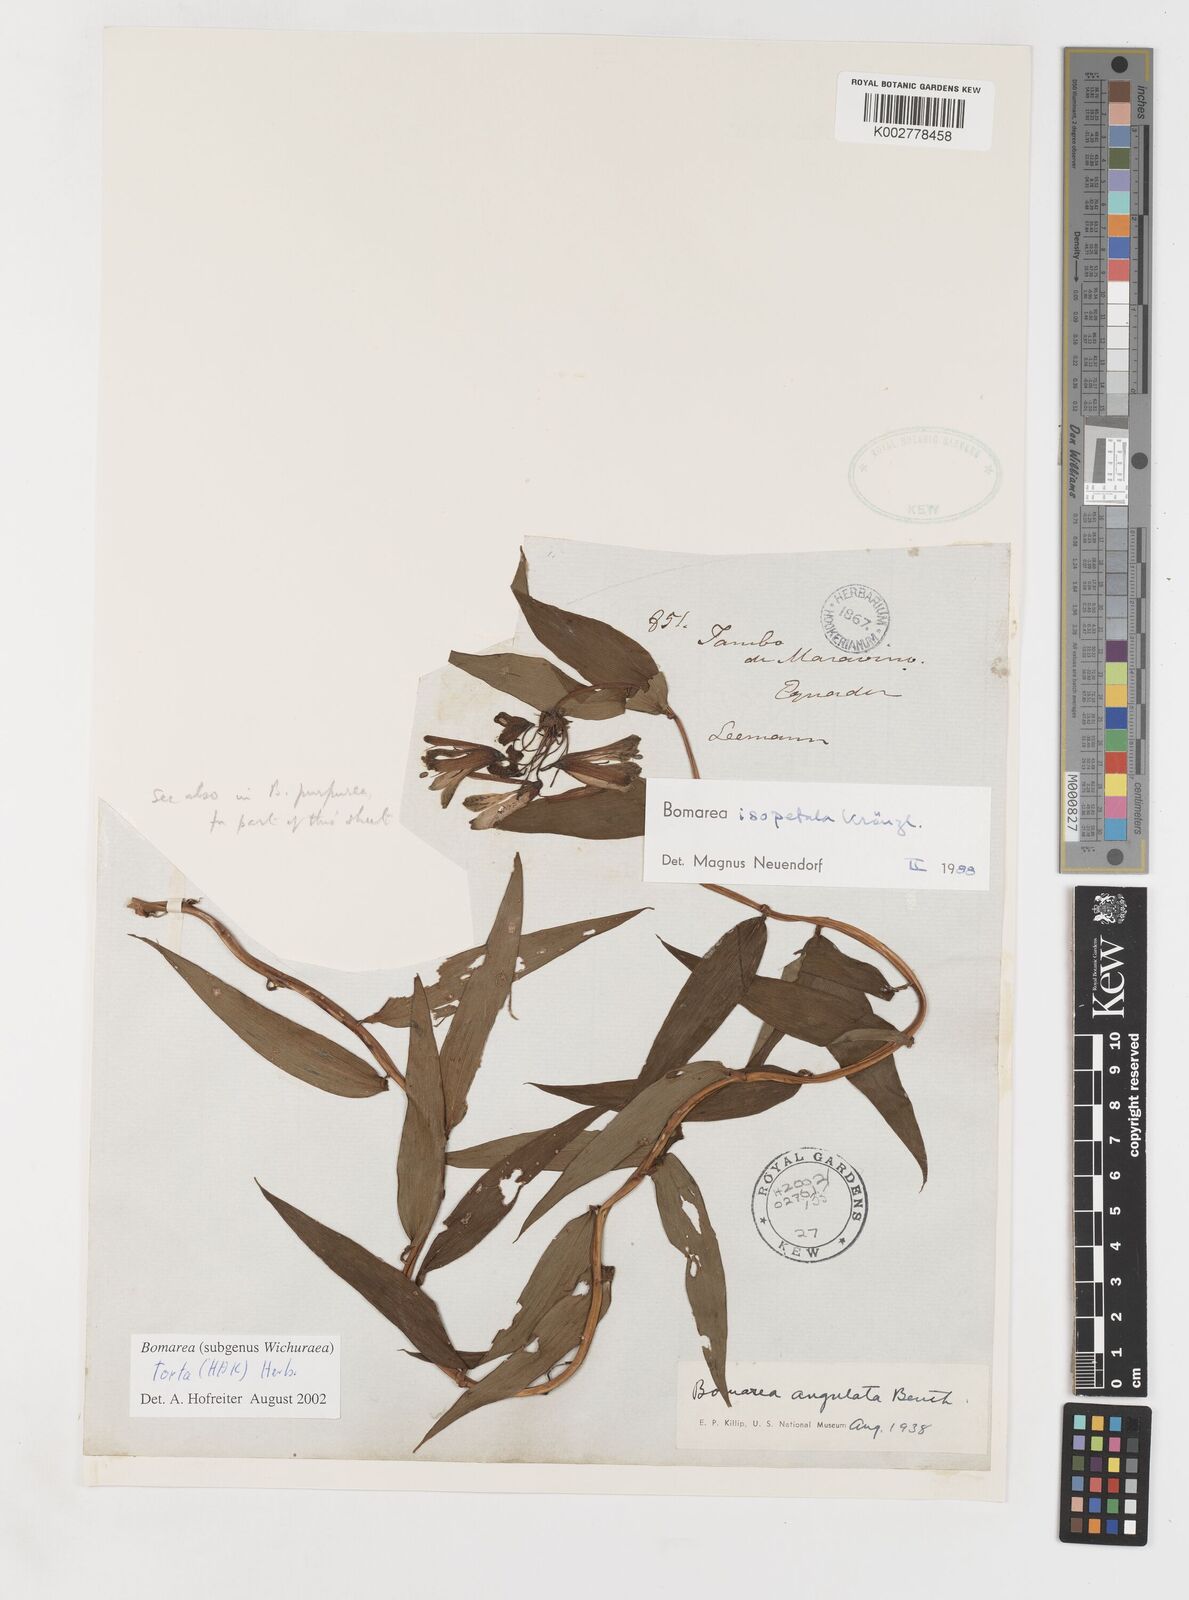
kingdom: Plantae
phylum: Tracheophyta
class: Liliopsida
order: Liliales
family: Alstroemeriaceae
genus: Bomarea
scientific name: Bomarea torta
